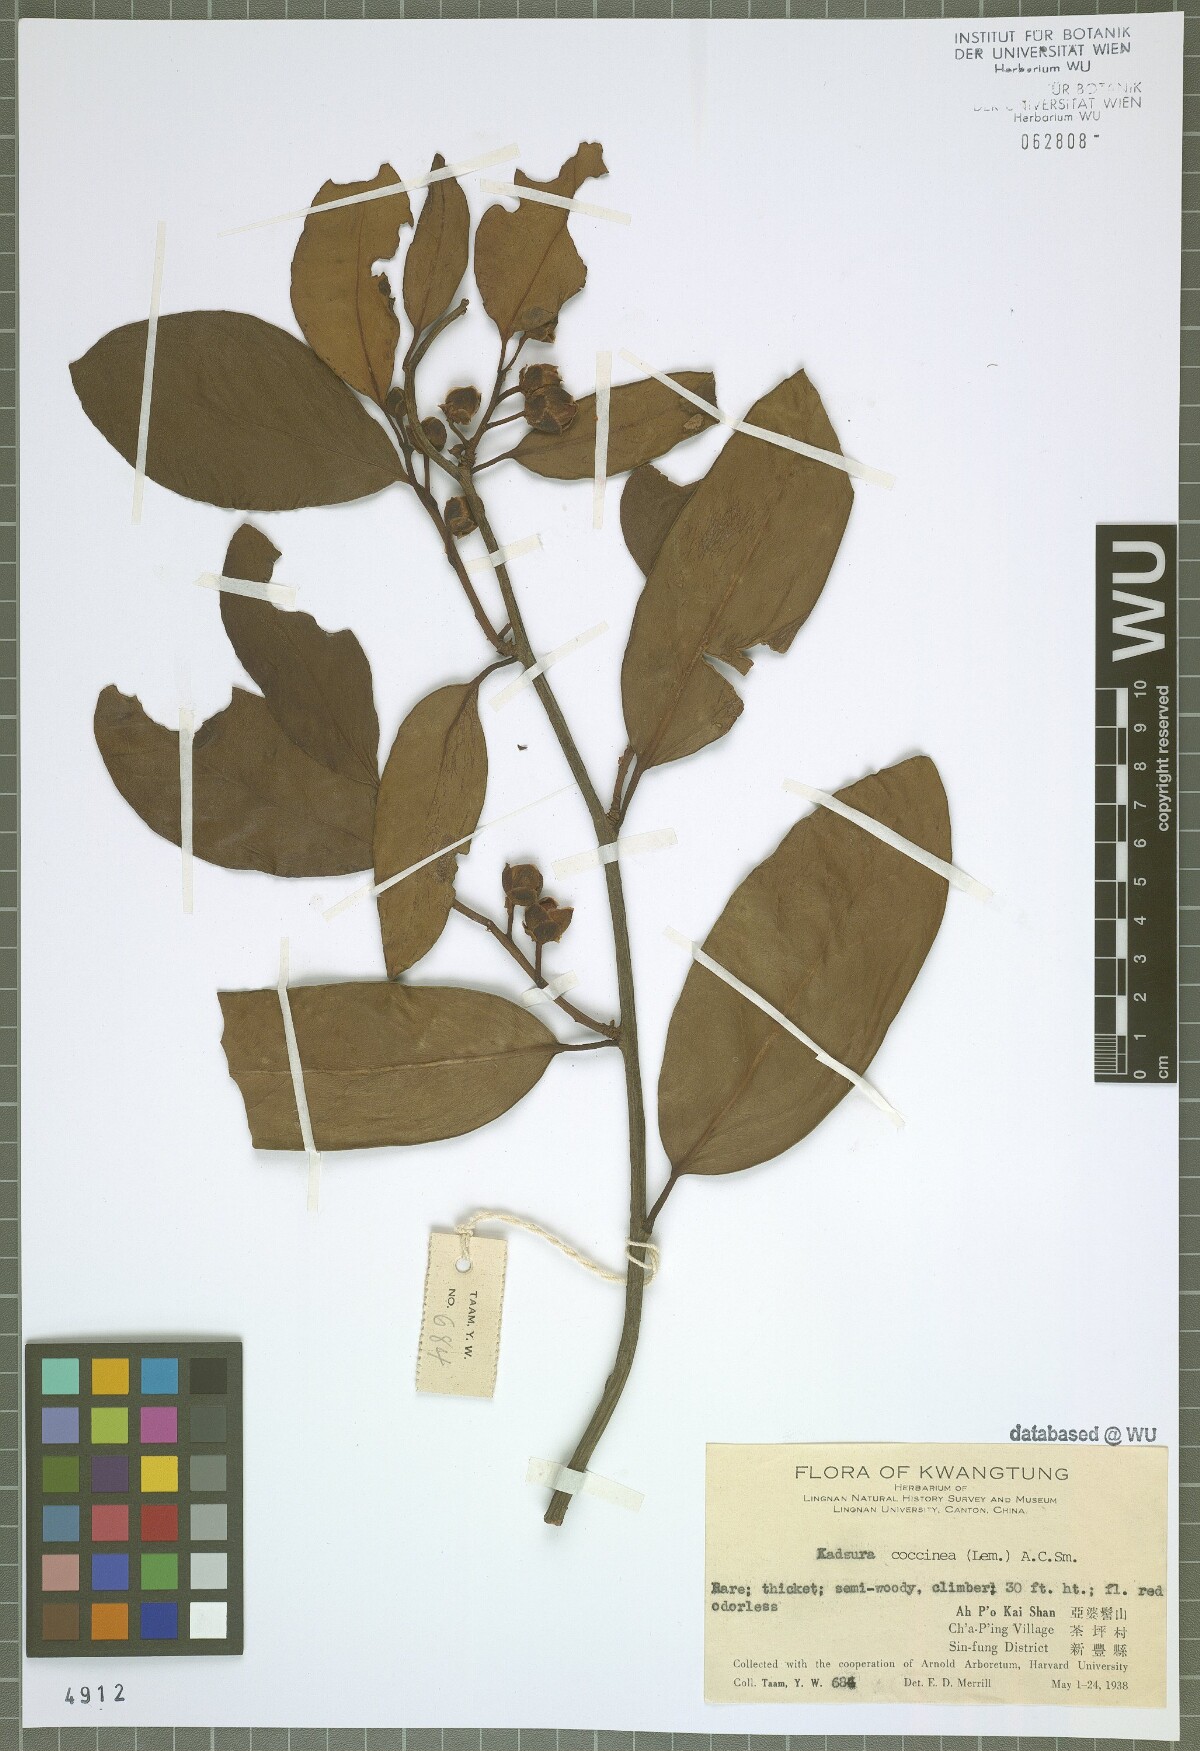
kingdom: Plantae
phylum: Tracheophyta
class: Magnoliopsida
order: Austrobaileyales
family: Schisandraceae
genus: Kadsura
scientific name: Kadsura coccinea
